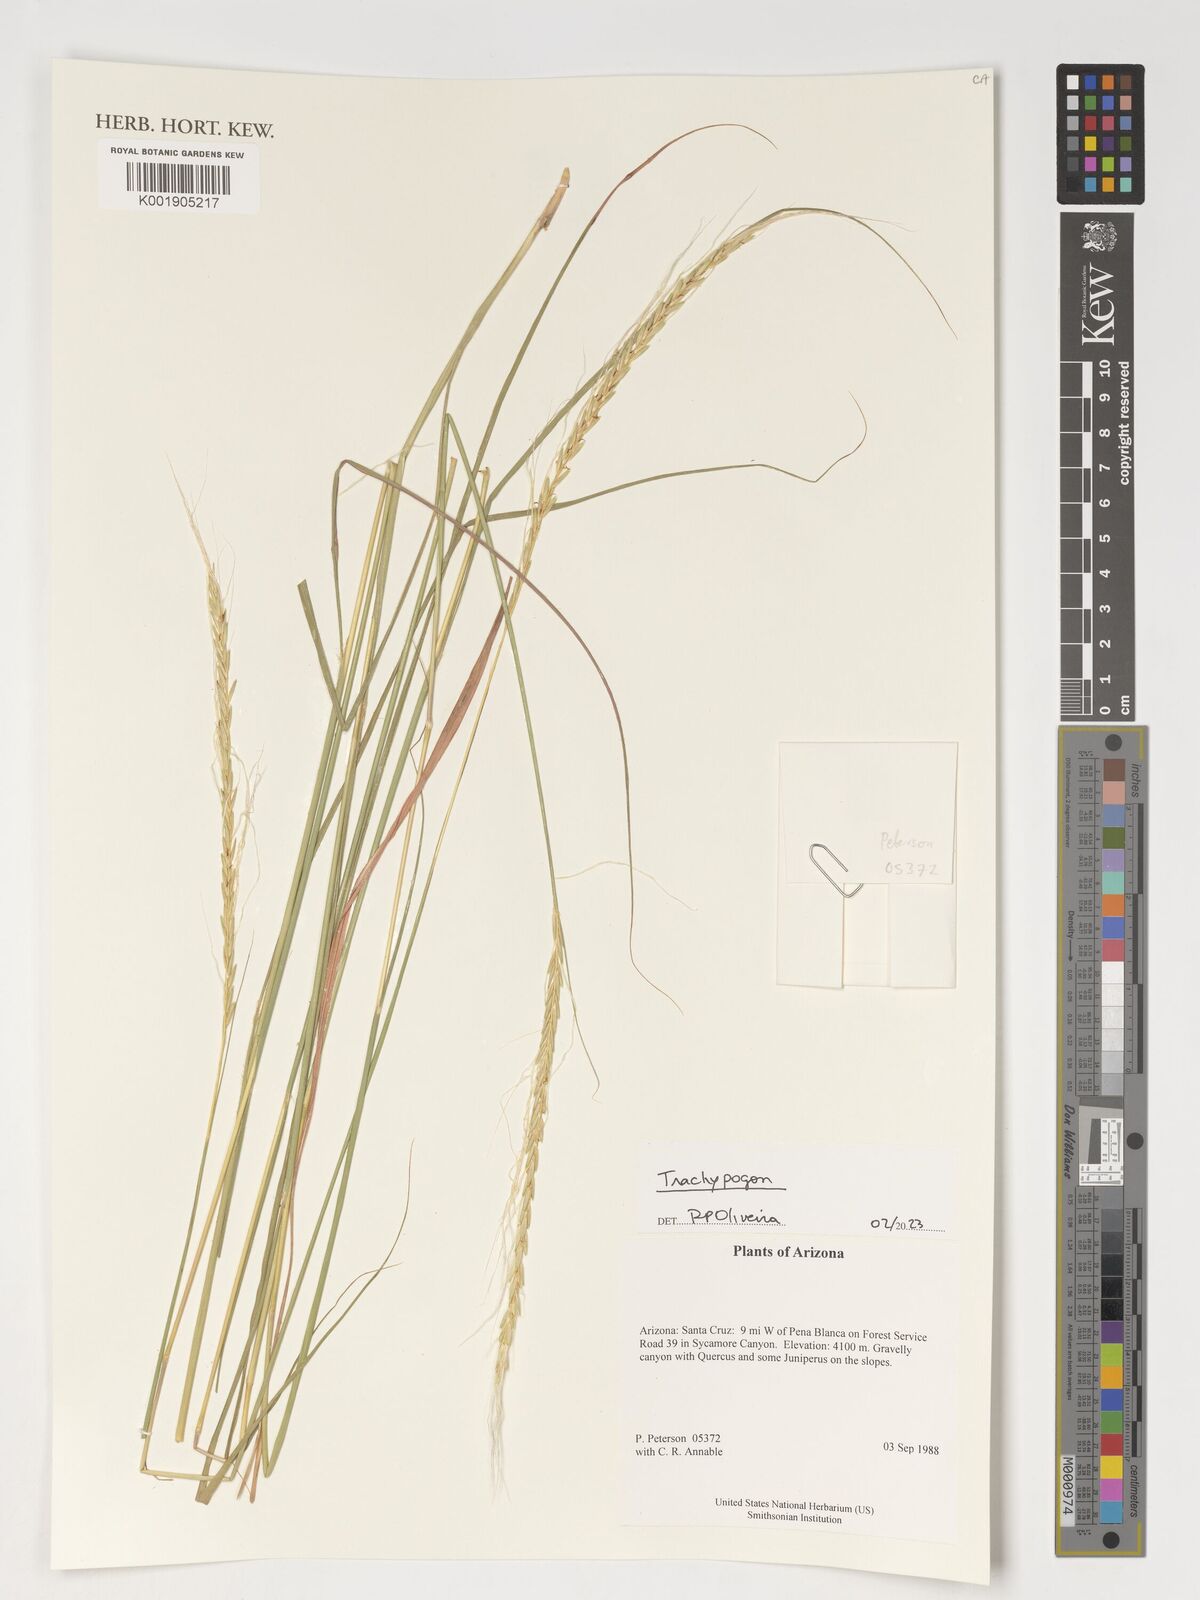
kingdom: Plantae
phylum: Tracheophyta
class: Liliopsida
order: Poales
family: Poaceae
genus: Trachypogon
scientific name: Trachypogon
